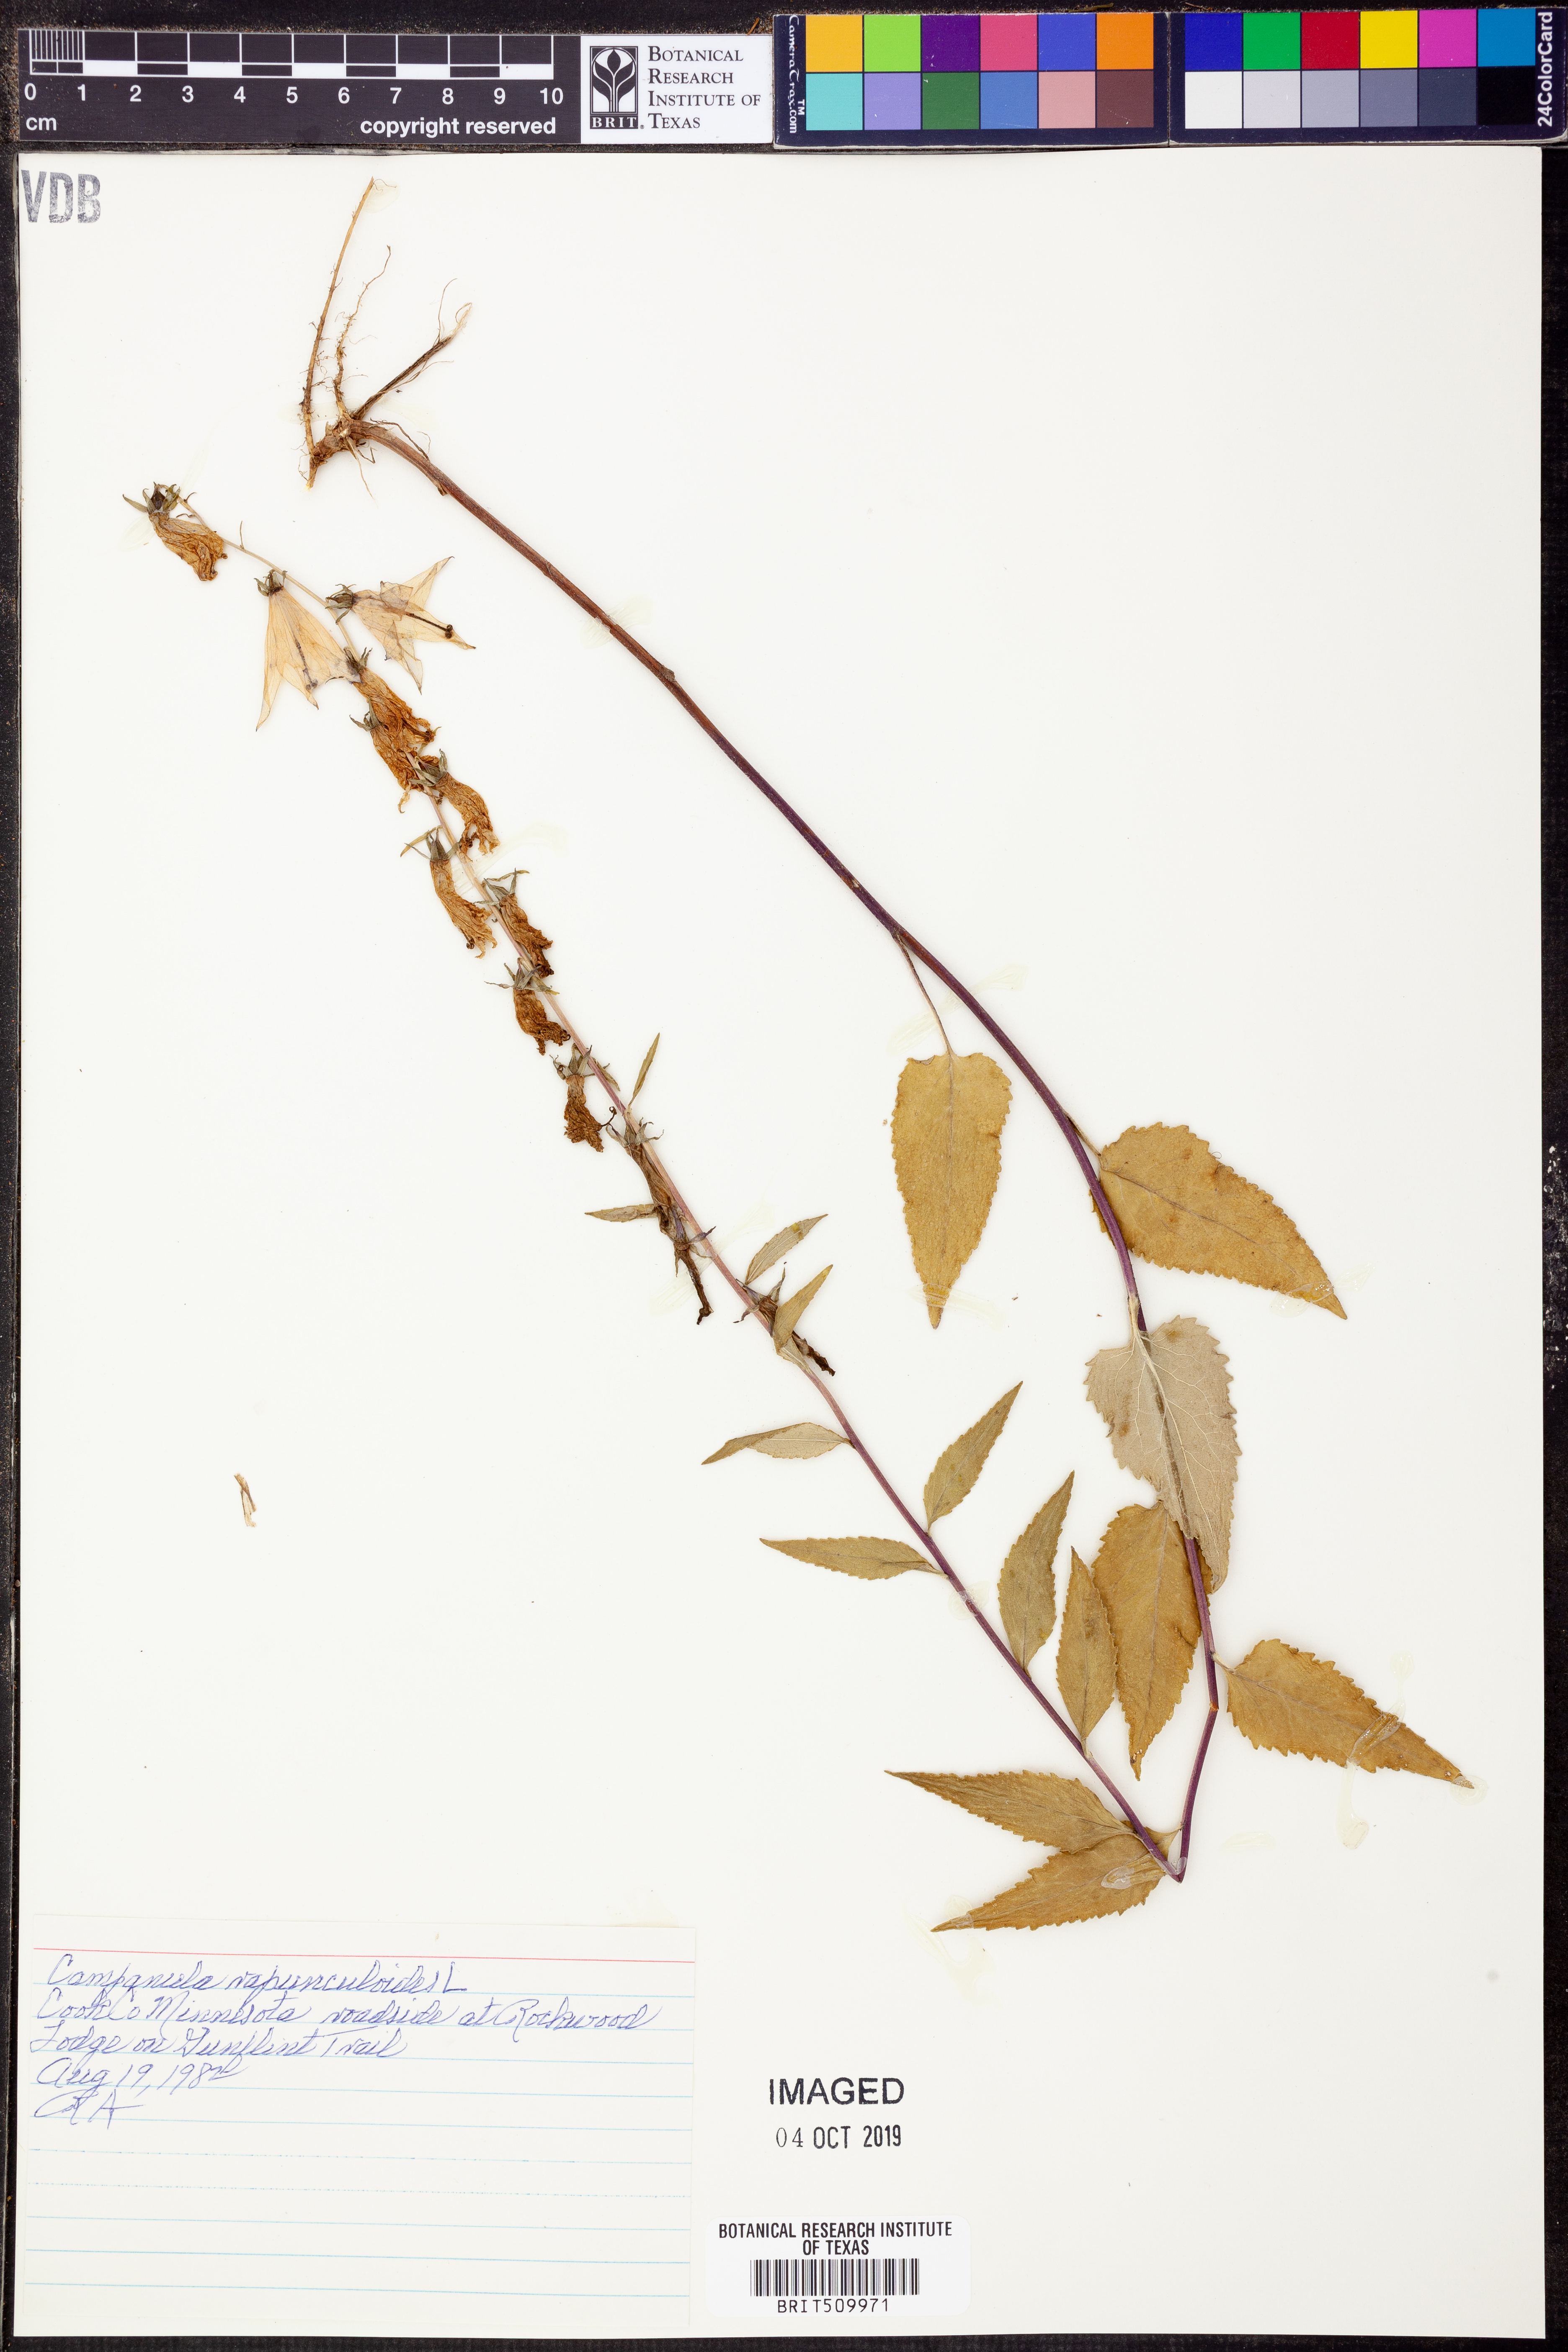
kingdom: Plantae
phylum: Tracheophyta
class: Magnoliopsida
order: Asterales
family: Campanulaceae
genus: Campanula
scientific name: Campanula rapunculoides
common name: Creeping bellflower
